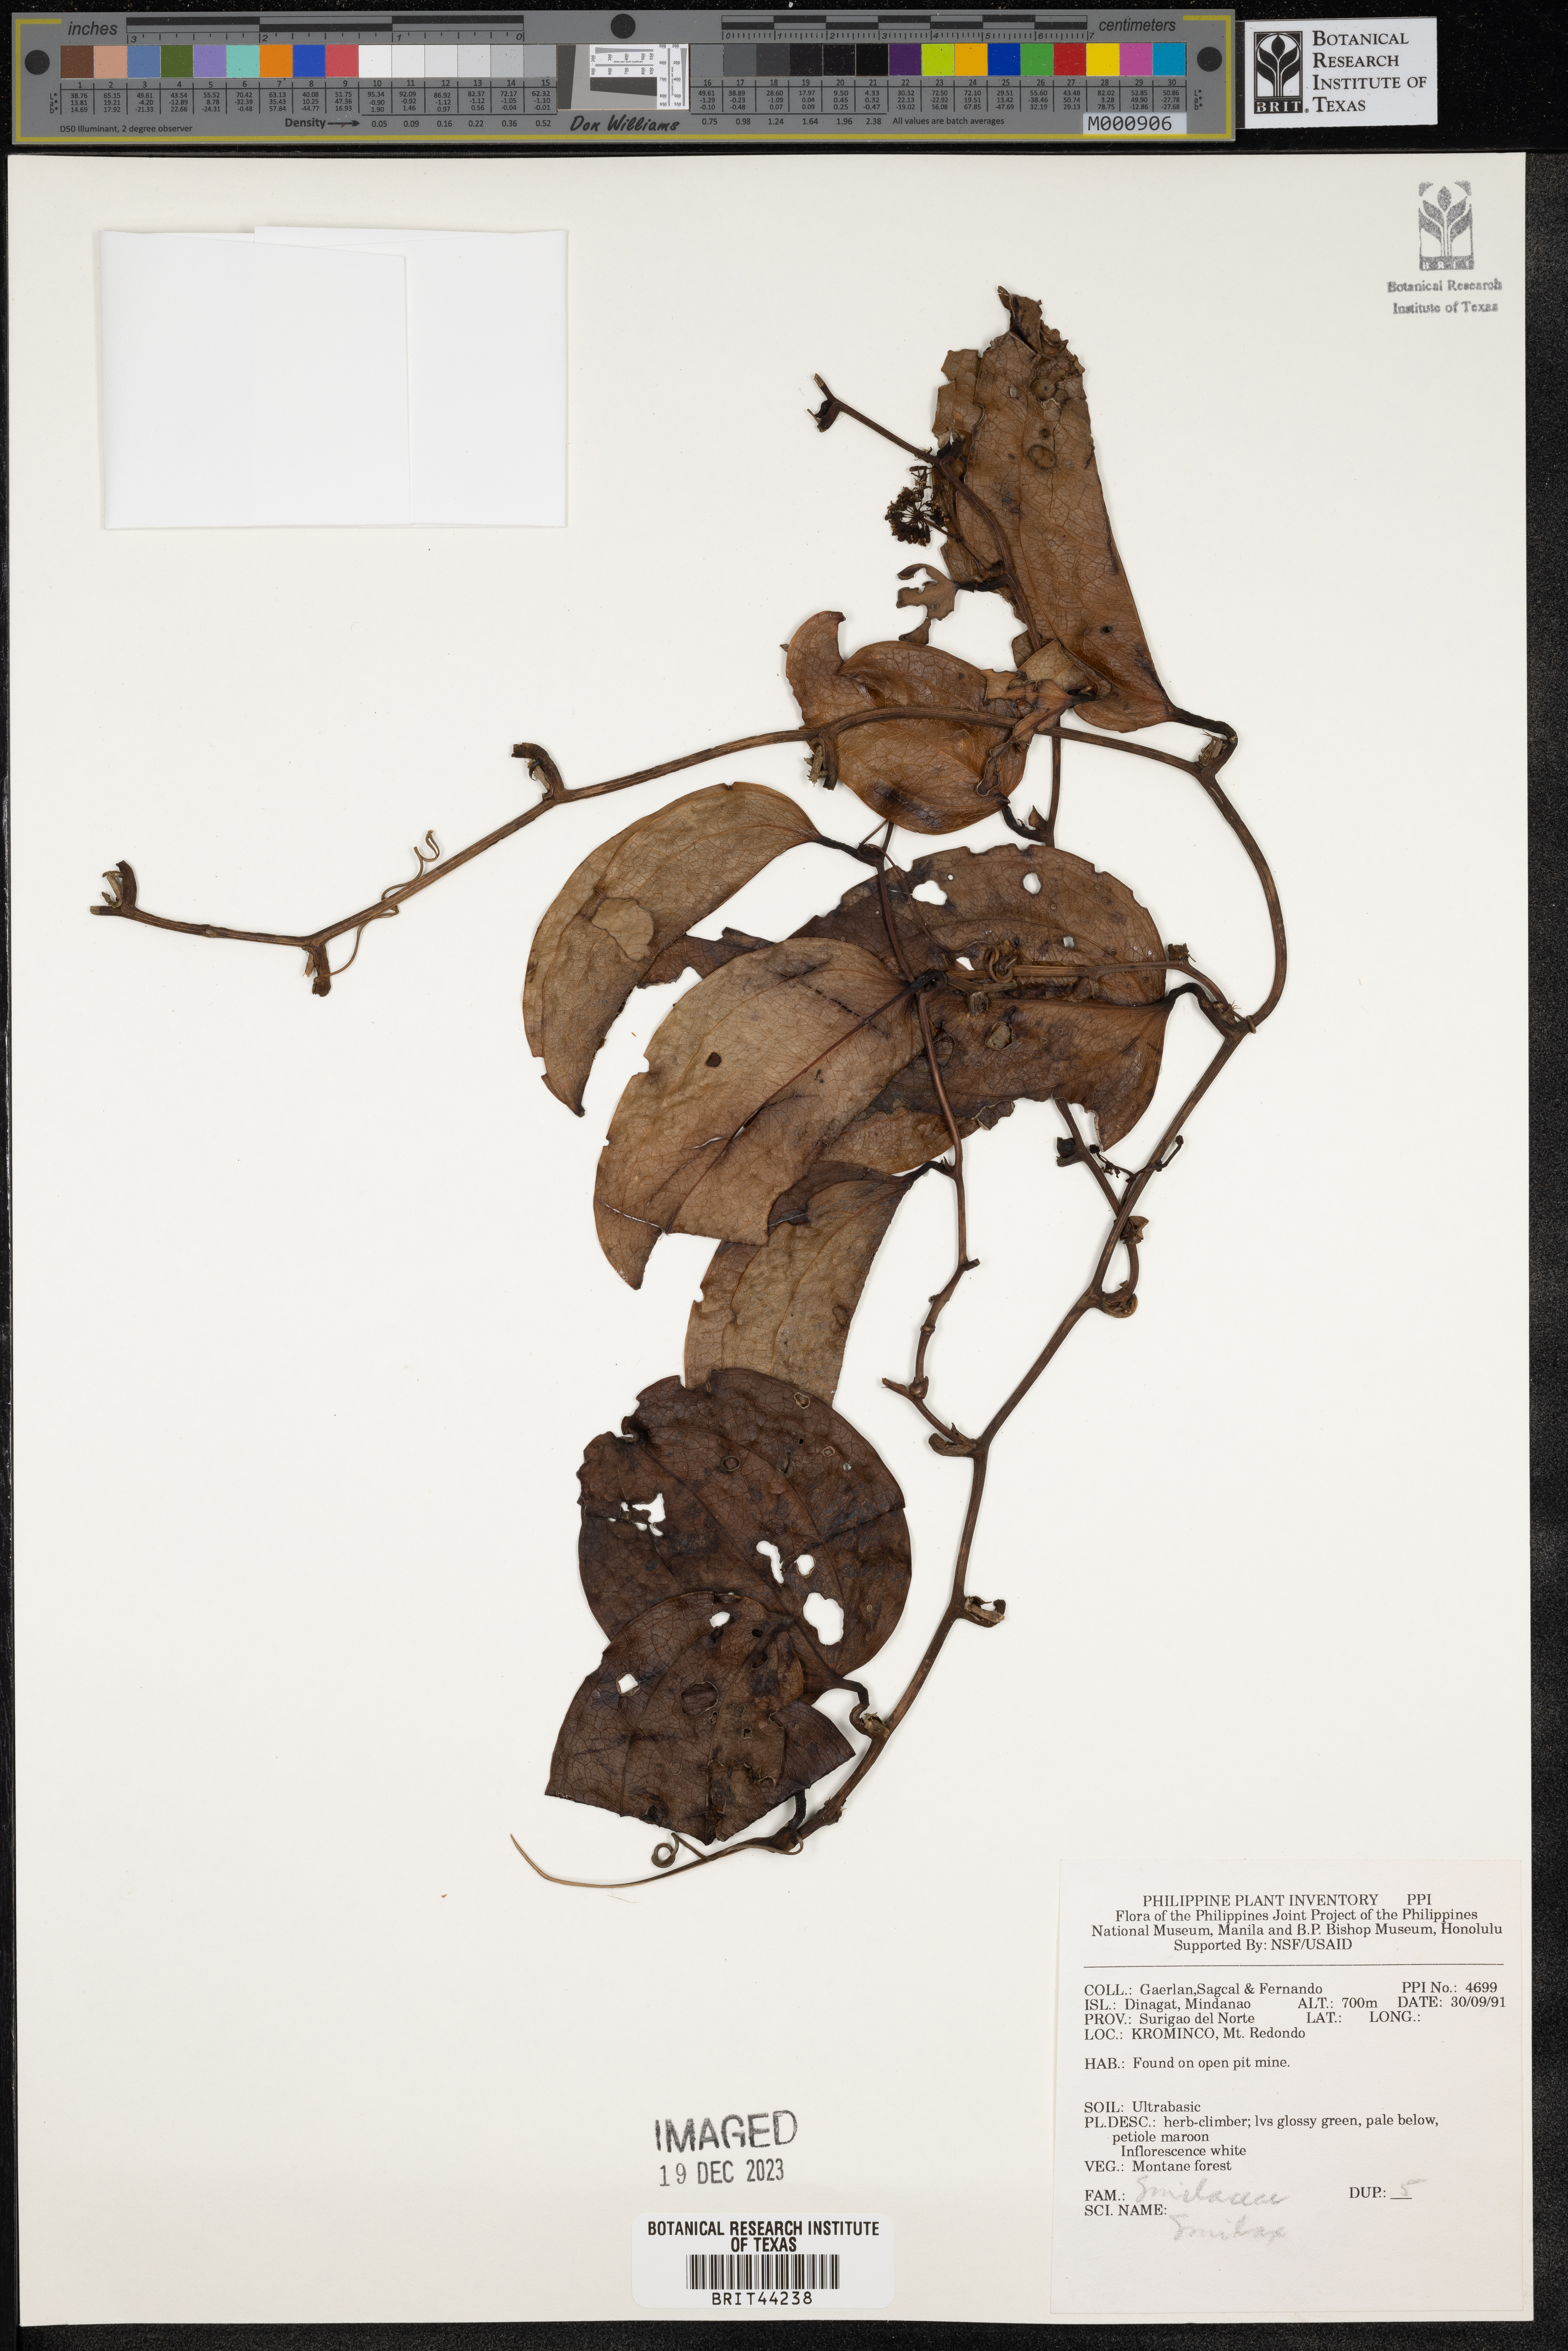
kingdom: Plantae
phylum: Tracheophyta
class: Liliopsida
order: Liliales
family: Smilacaceae
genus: Smilax
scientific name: Smilax
